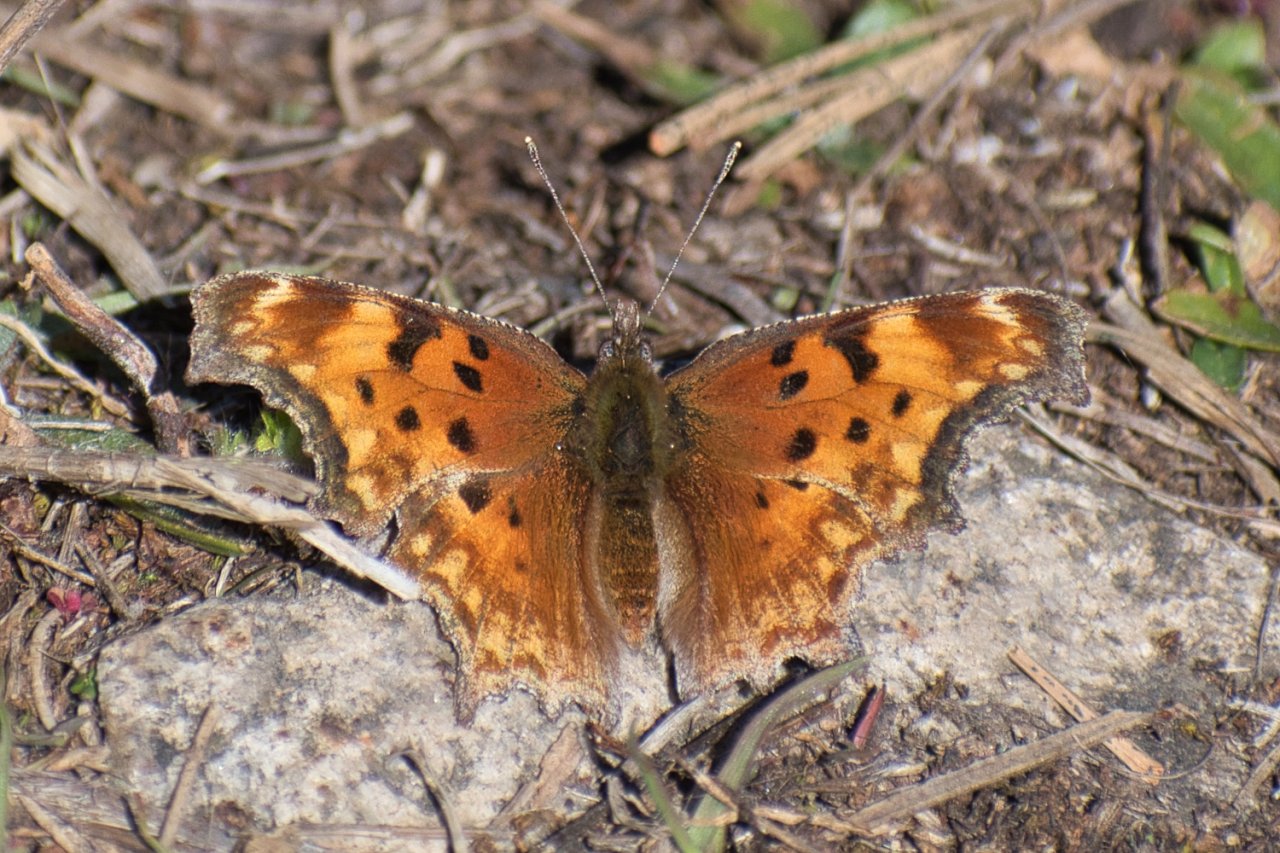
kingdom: Animalia
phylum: Arthropoda
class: Insecta
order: Lepidoptera
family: Nymphalidae
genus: Polygonia
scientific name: Polygonia gracilis
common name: Hoary Comma
